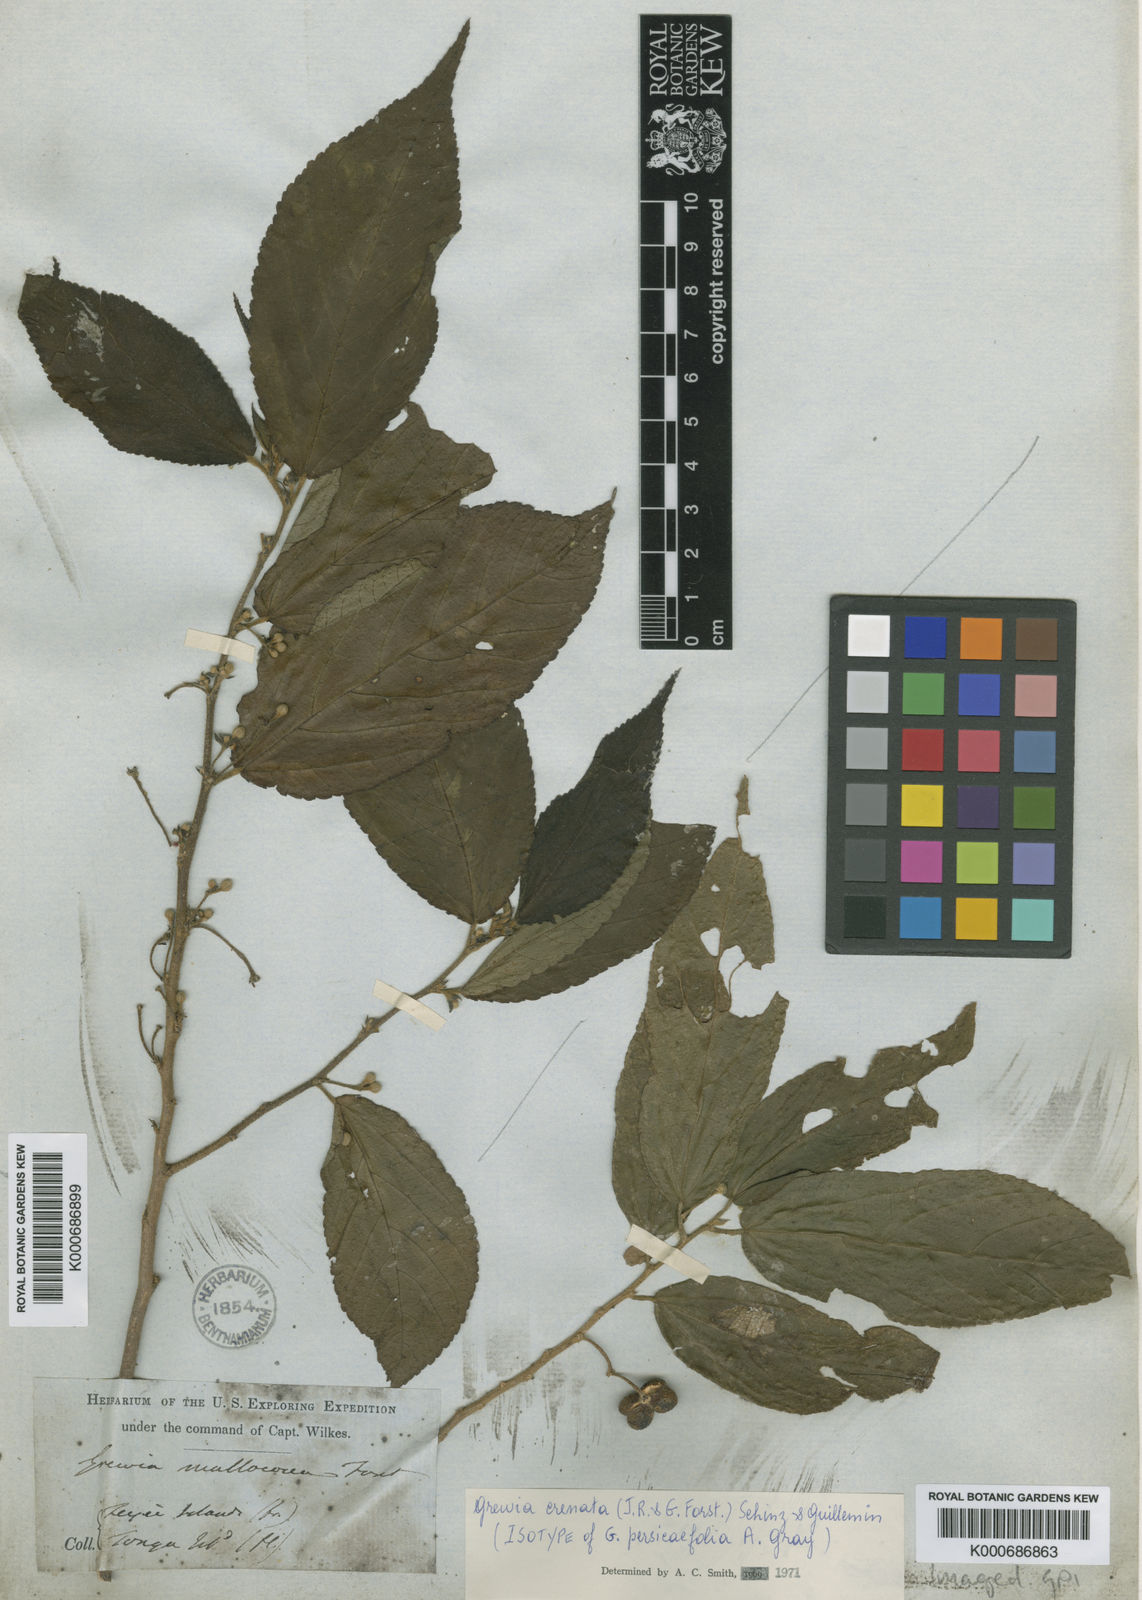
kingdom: Plantae
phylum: Tracheophyta
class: Magnoliopsida
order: Malvales
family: Malvaceae
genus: Grewia
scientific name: Grewia crenata
